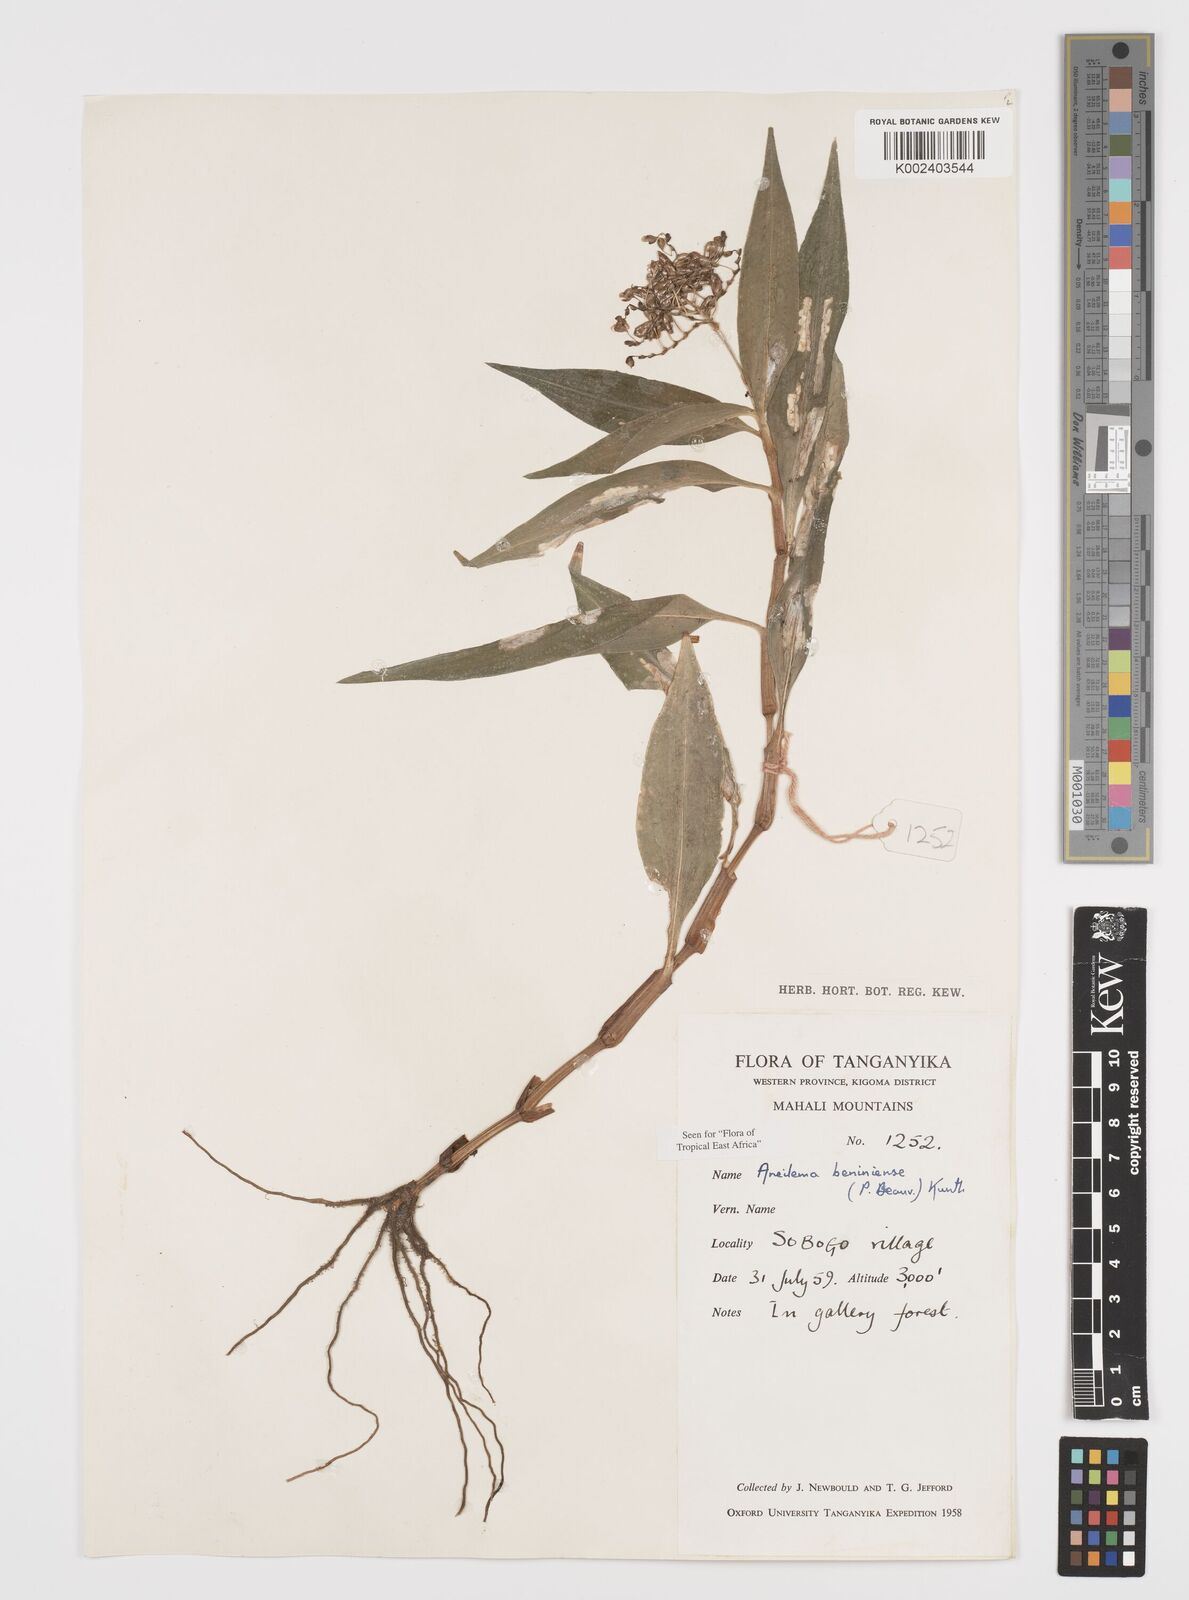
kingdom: Plantae
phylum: Tracheophyta
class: Liliopsida
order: Commelinales
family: Commelinaceae
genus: Aneilema
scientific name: Aneilema beniniense
